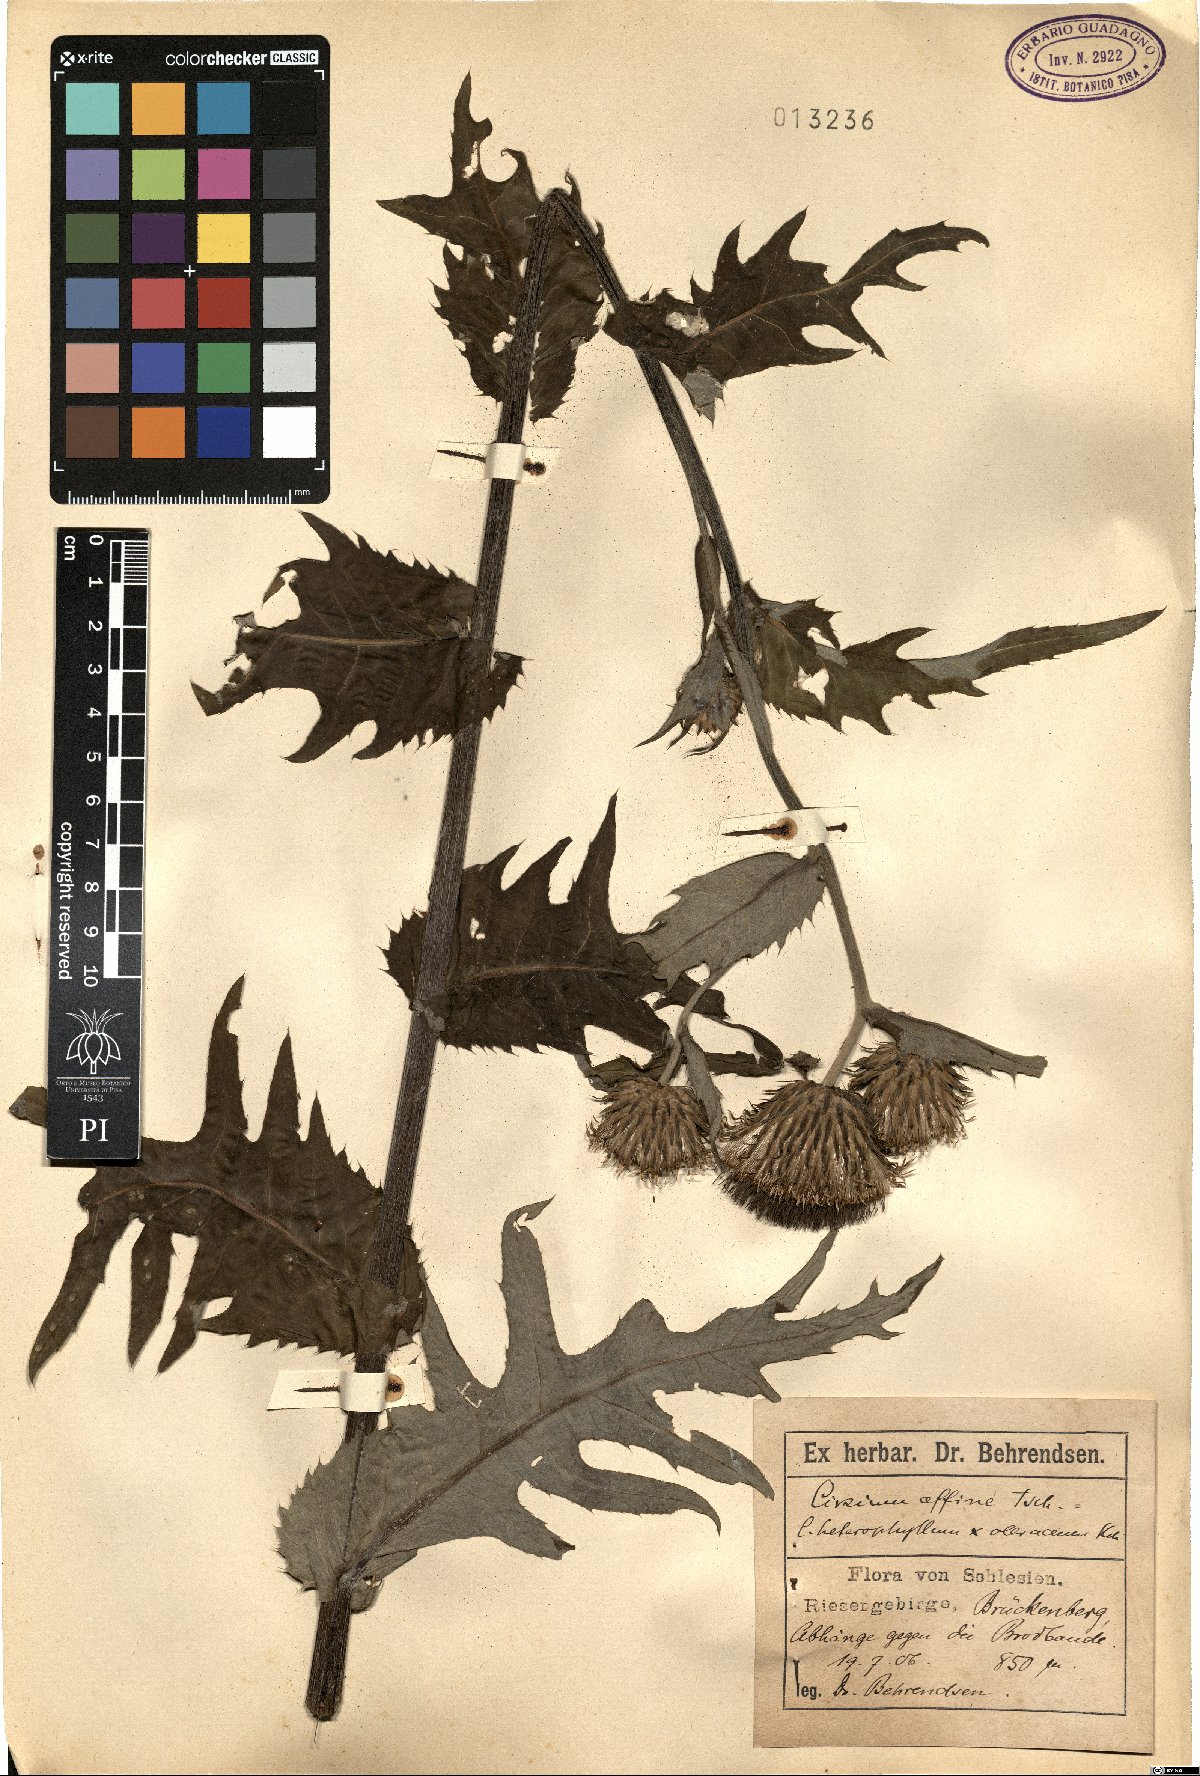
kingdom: Plantae
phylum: Tracheophyta
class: Magnoliopsida
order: Asterales
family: Asteraceae
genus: Cirsium
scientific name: Cirsium affine
